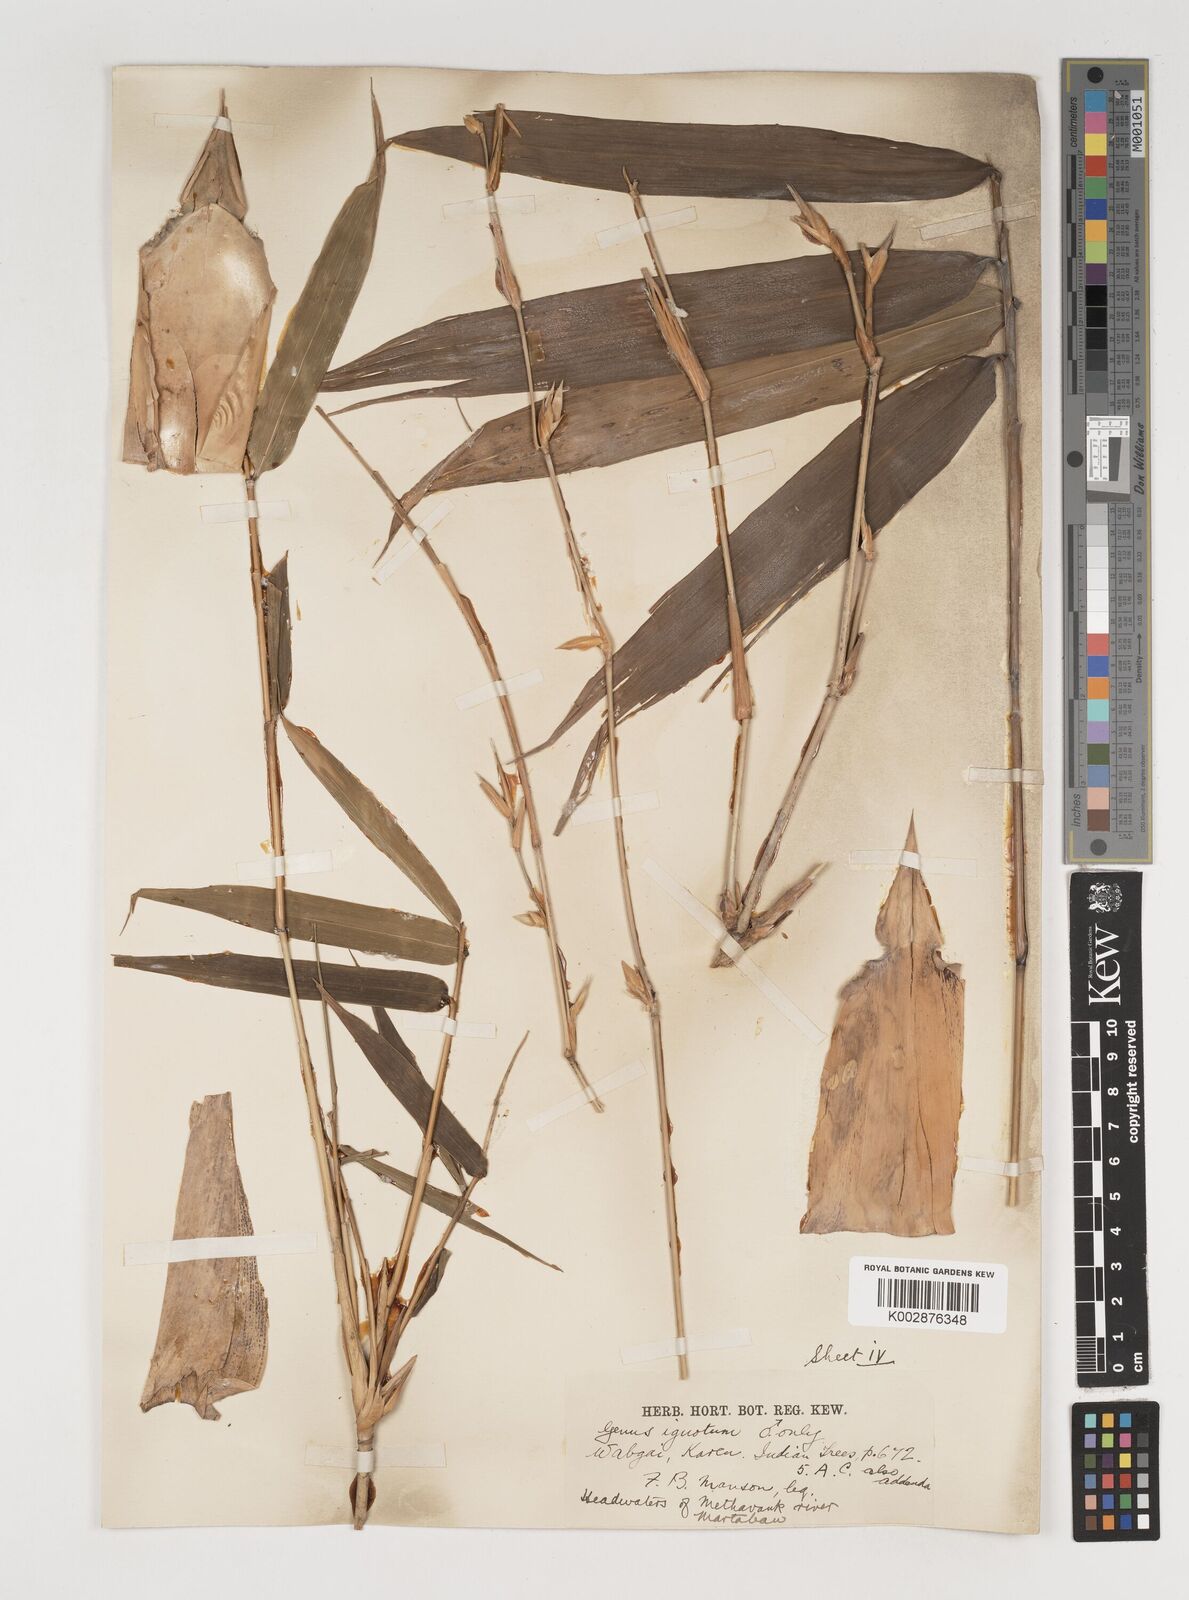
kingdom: Plantae
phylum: Tracheophyta
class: Liliopsida
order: Poales
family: Poaceae
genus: Bambusa
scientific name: Bambusa burmanica
